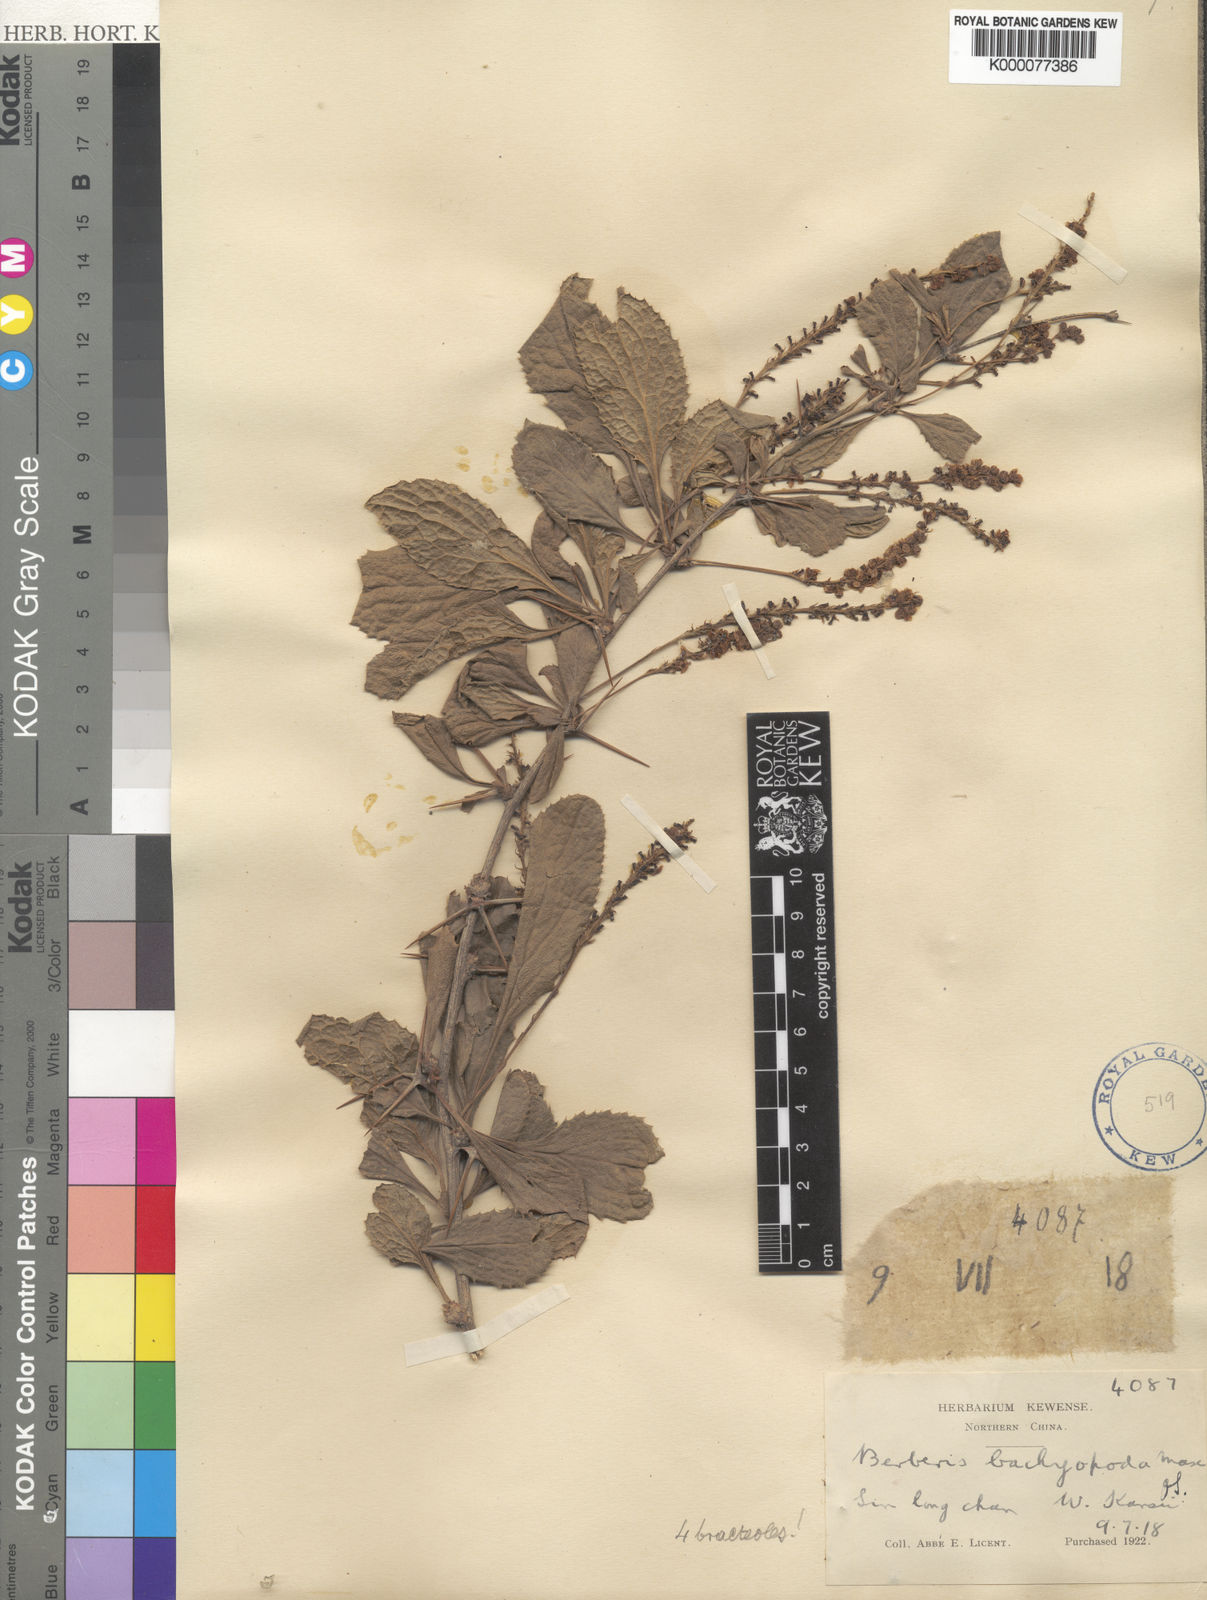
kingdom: Plantae
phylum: Tracheophyta
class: Magnoliopsida
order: Ranunculales
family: Berberidaceae
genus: Berberis
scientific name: Berberis brachypoda
